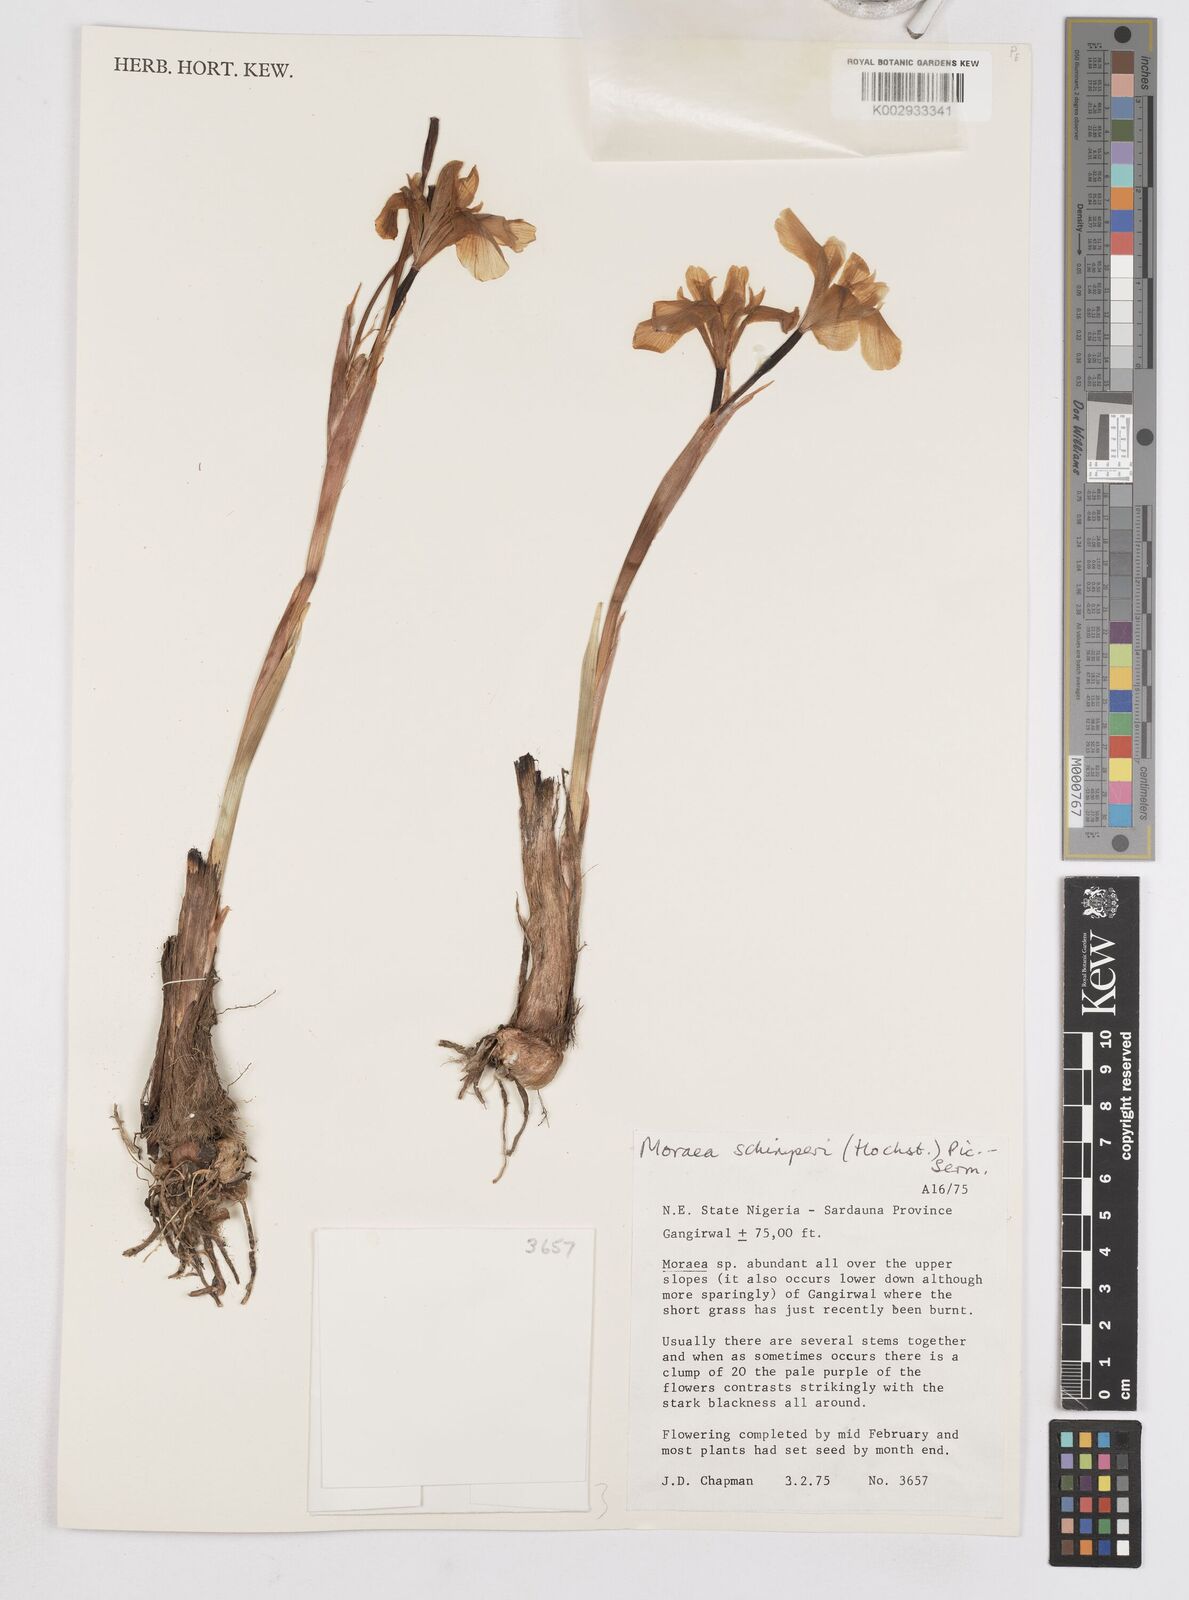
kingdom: Plantae
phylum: Tracheophyta
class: Liliopsida
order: Asparagales
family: Iridaceae
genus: Moraea
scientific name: Moraea schimperi
